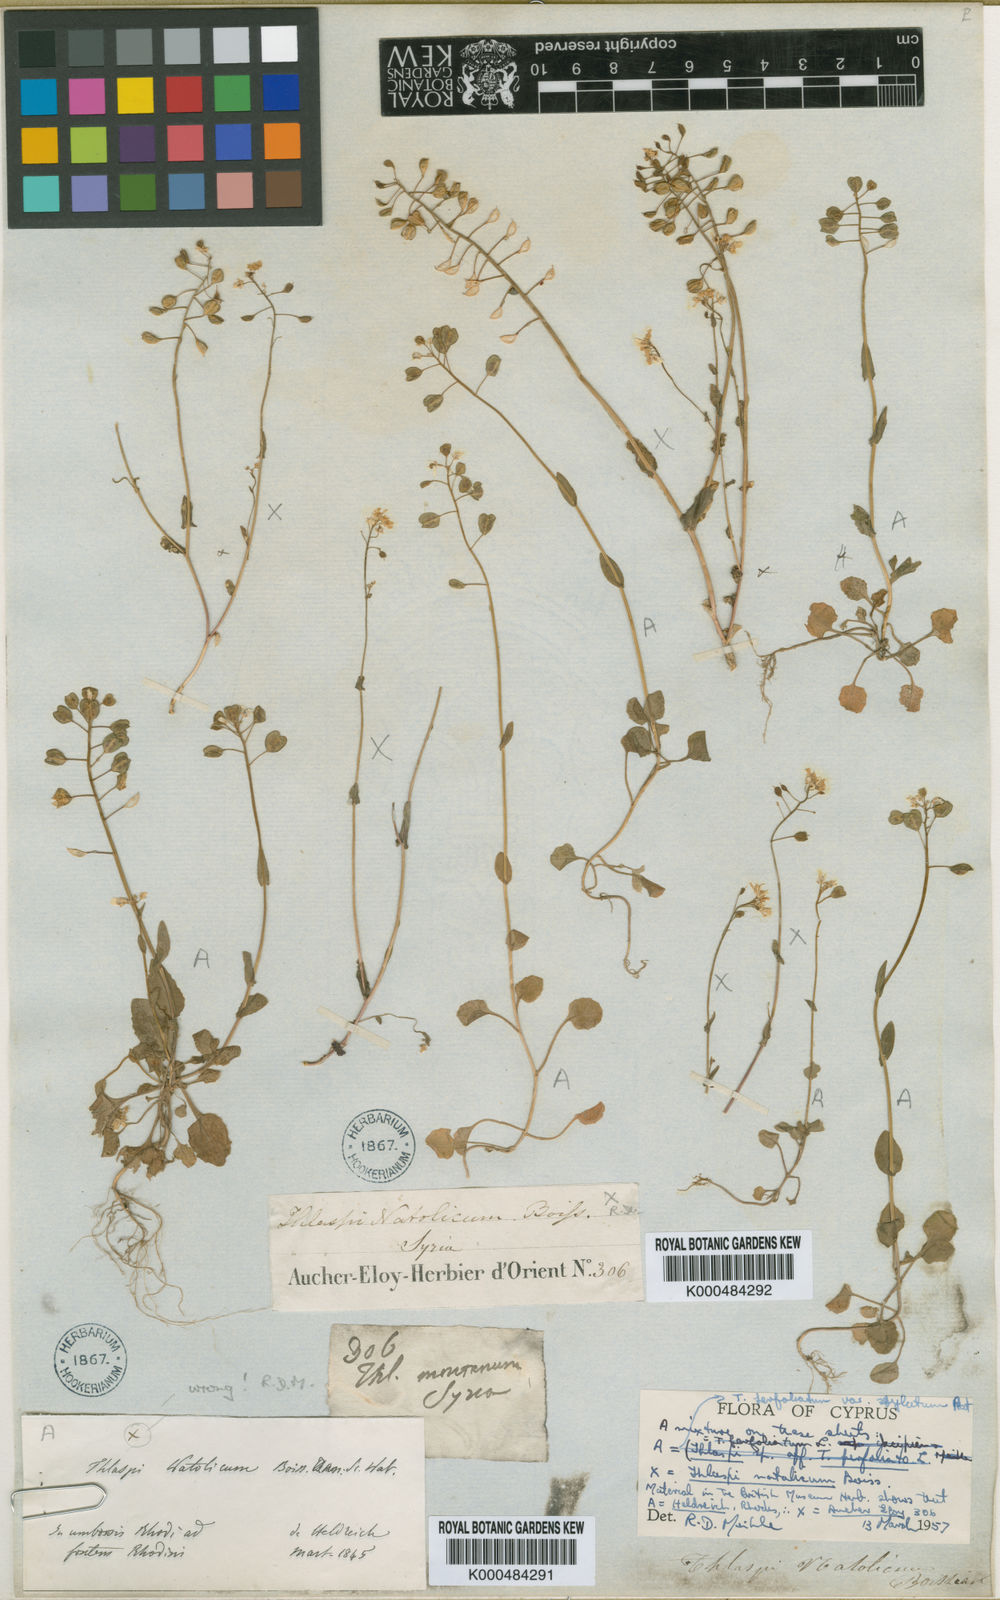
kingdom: Plantae
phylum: Tracheophyta
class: Magnoliopsida
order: Brassicales
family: Brassicaceae
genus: Noccaea
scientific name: Noccaea natolica
